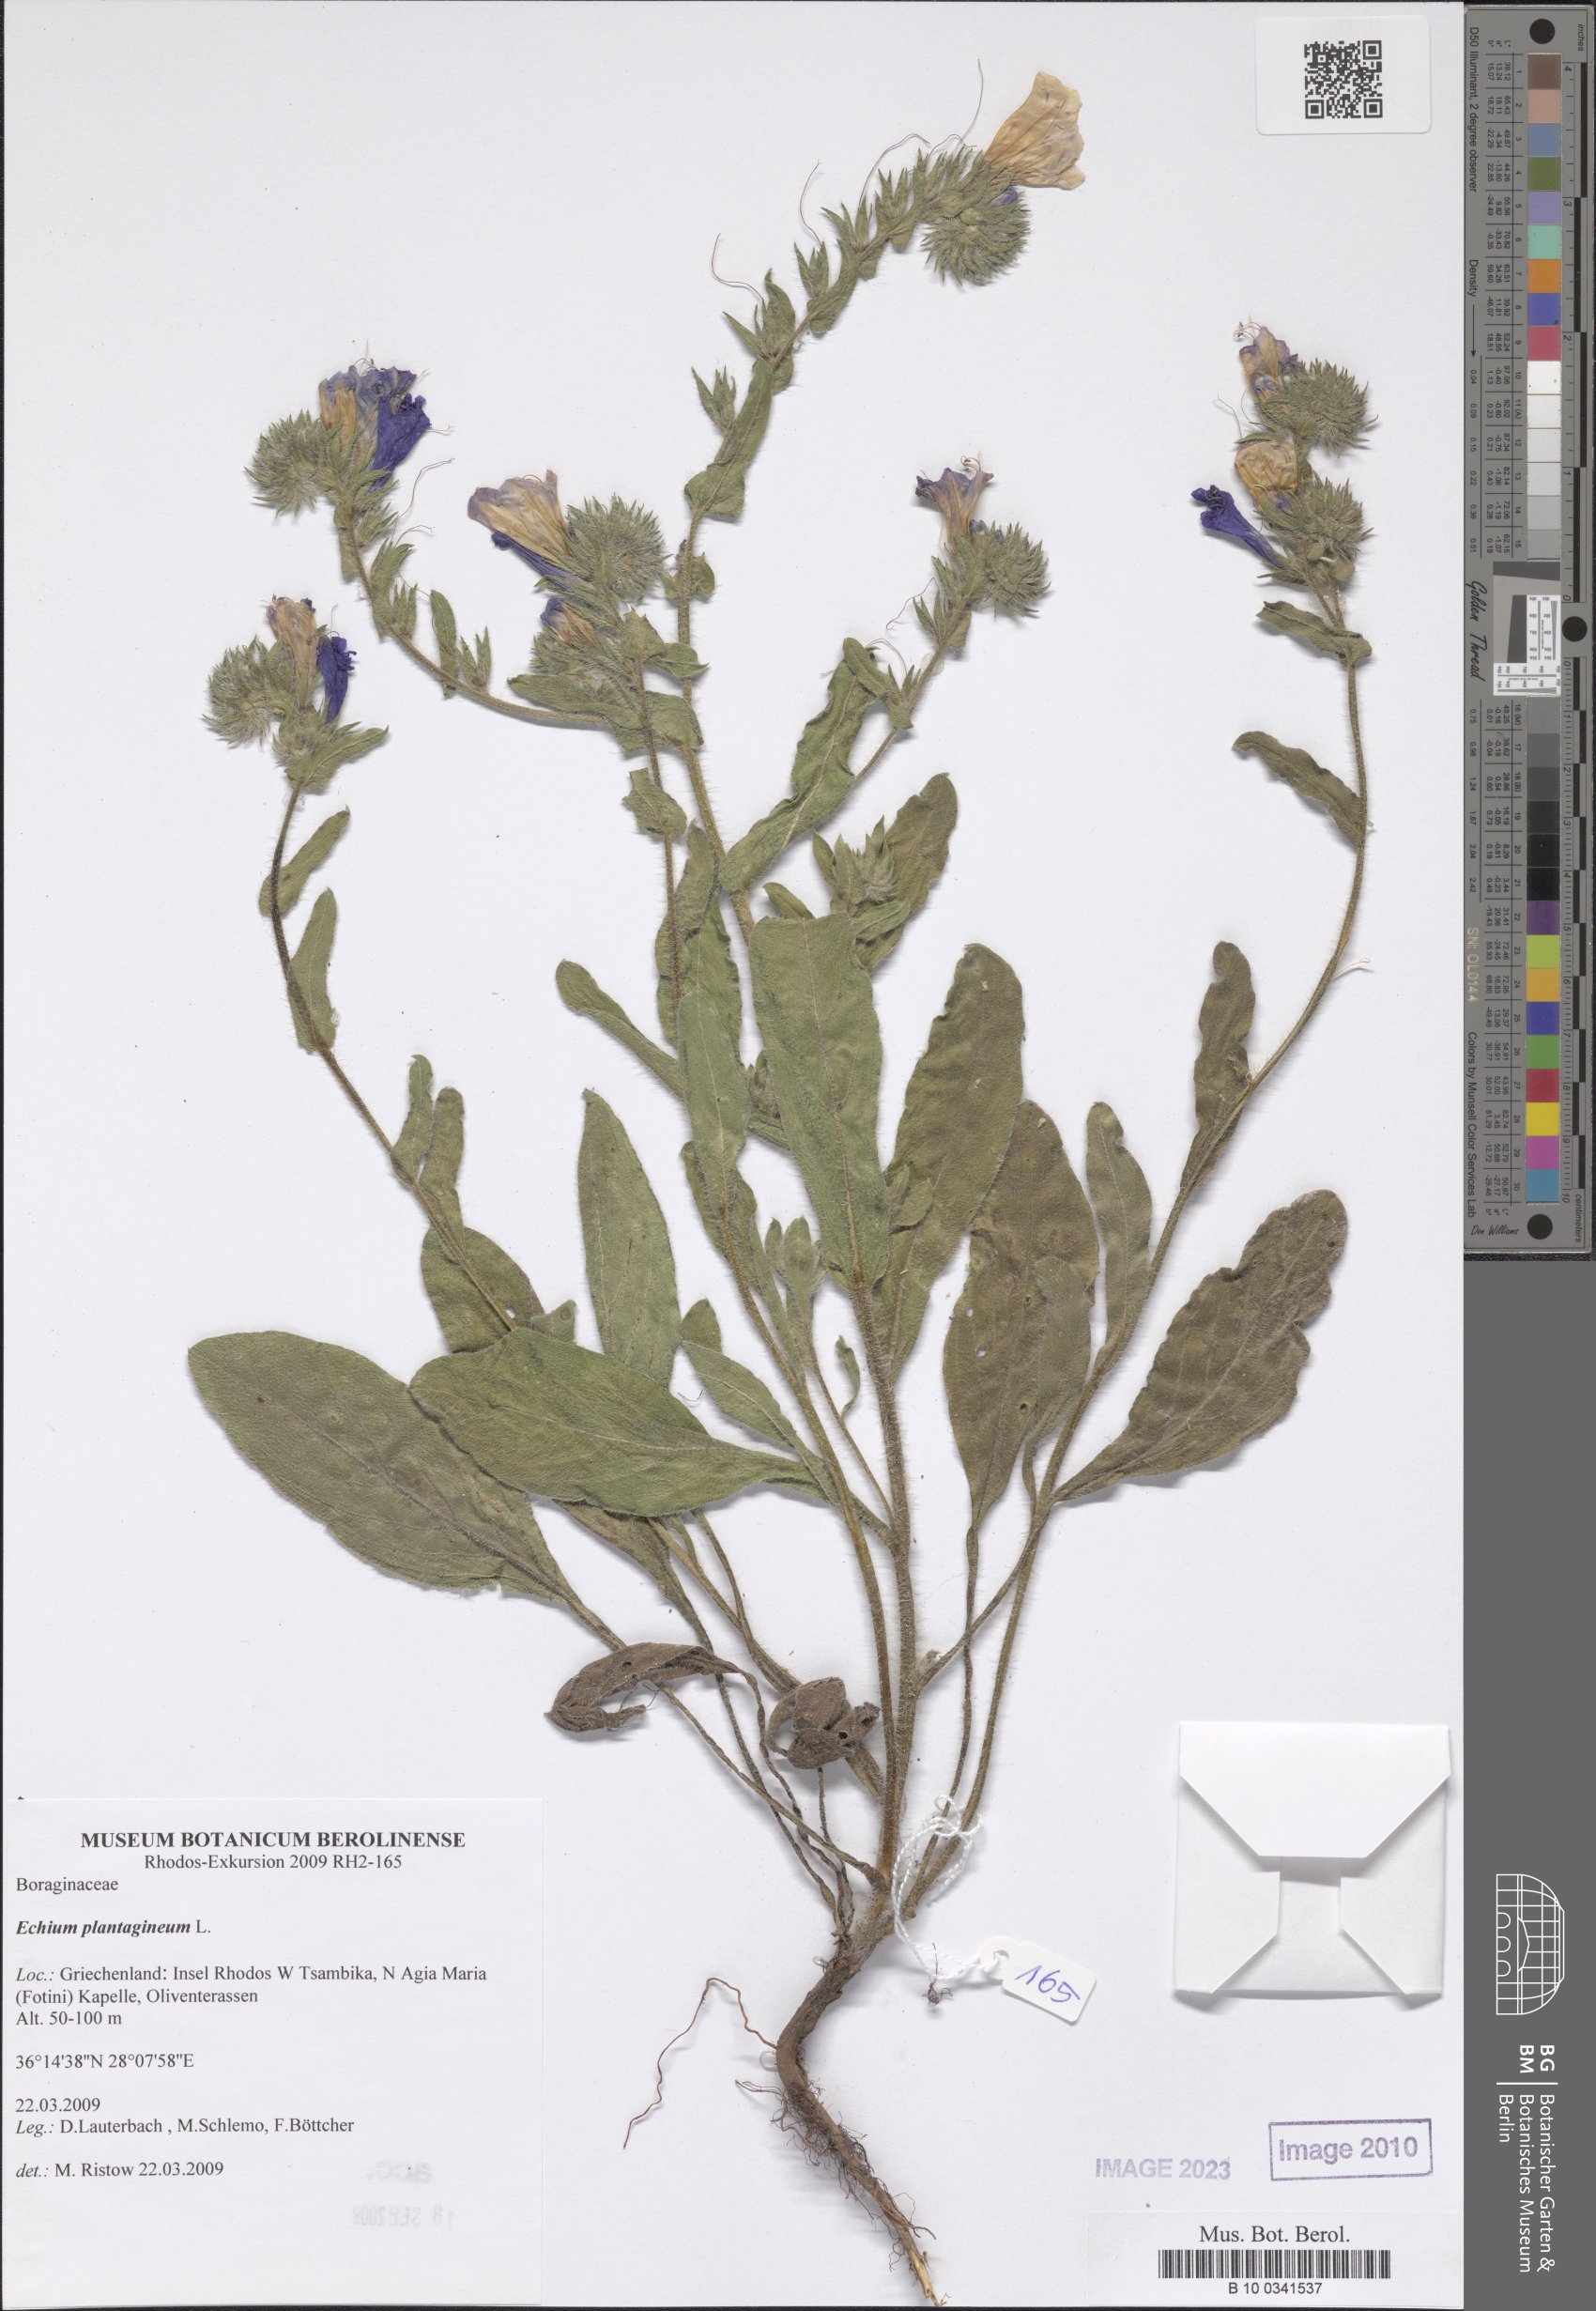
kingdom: Plantae
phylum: Tracheophyta
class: Magnoliopsida
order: Boraginales
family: Boraginaceae
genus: Echium
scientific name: Echium plantagineum
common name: Purple viper's-bugloss
